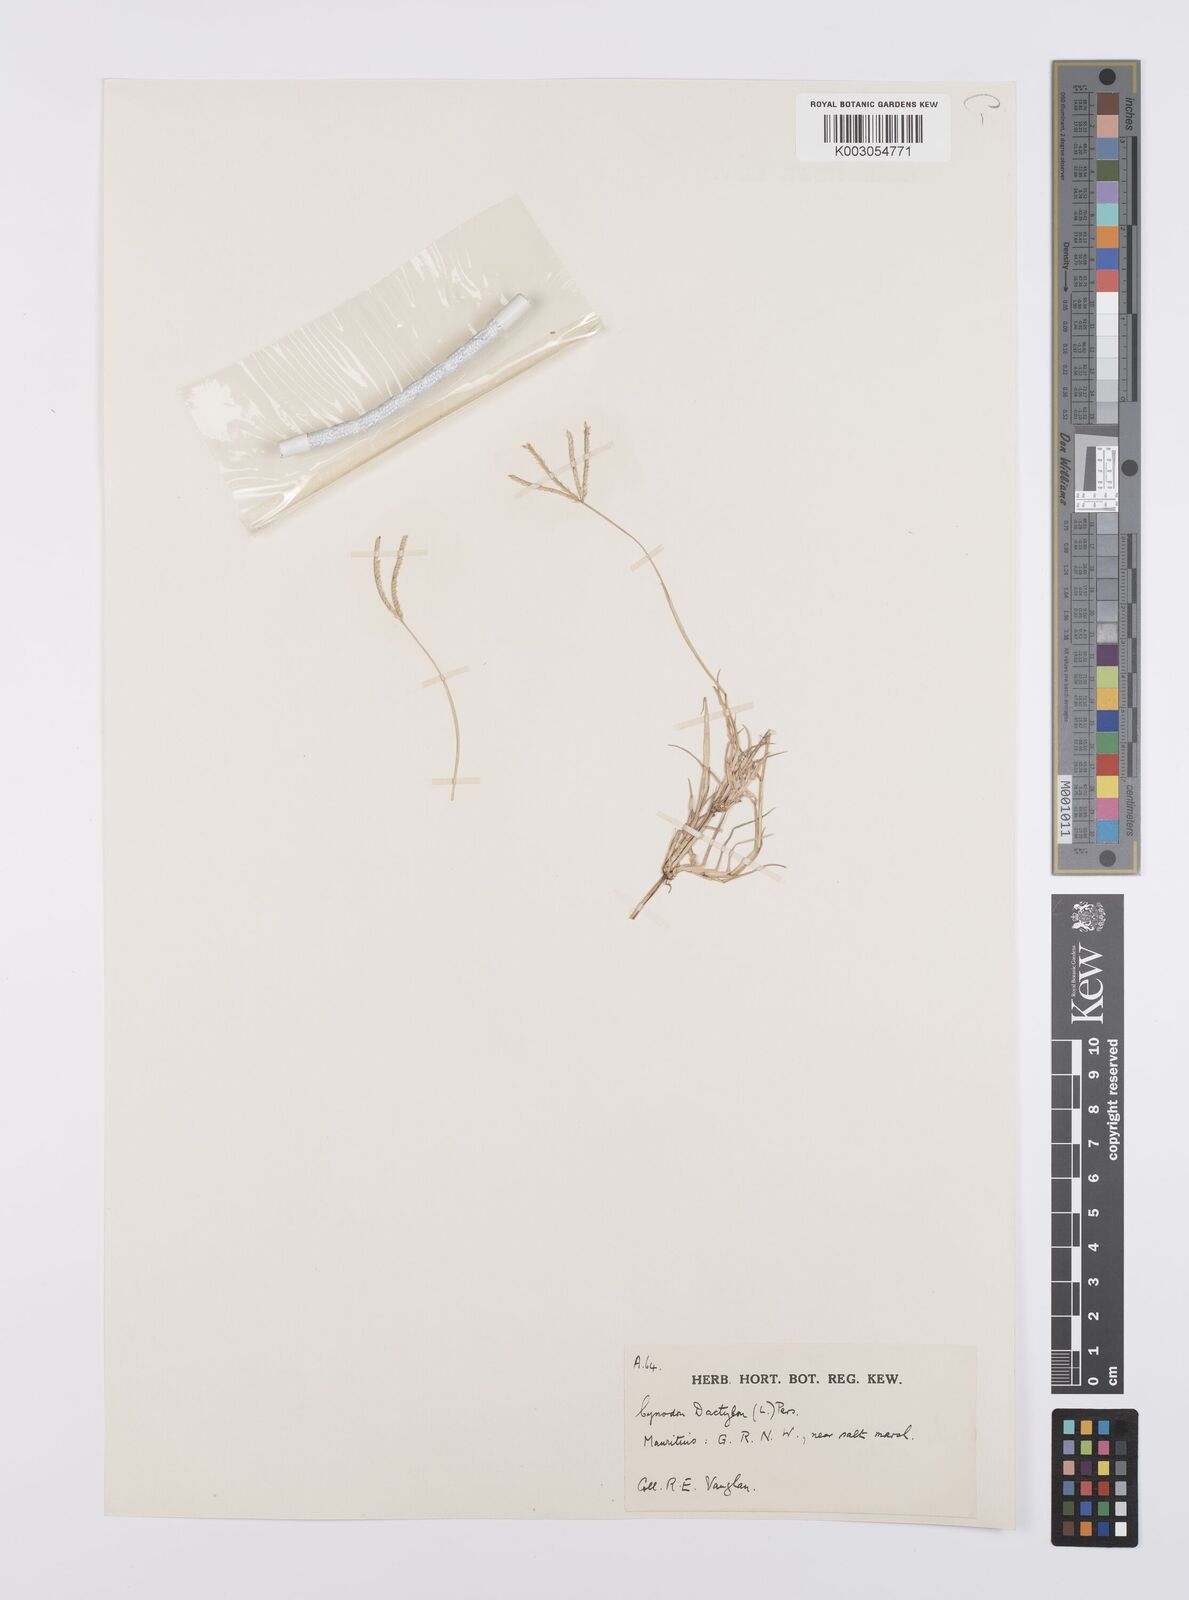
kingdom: Plantae
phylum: Tracheophyta
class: Liliopsida
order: Poales
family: Poaceae
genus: Cynodon
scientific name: Cynodon dactylon
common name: Bermuda grass
